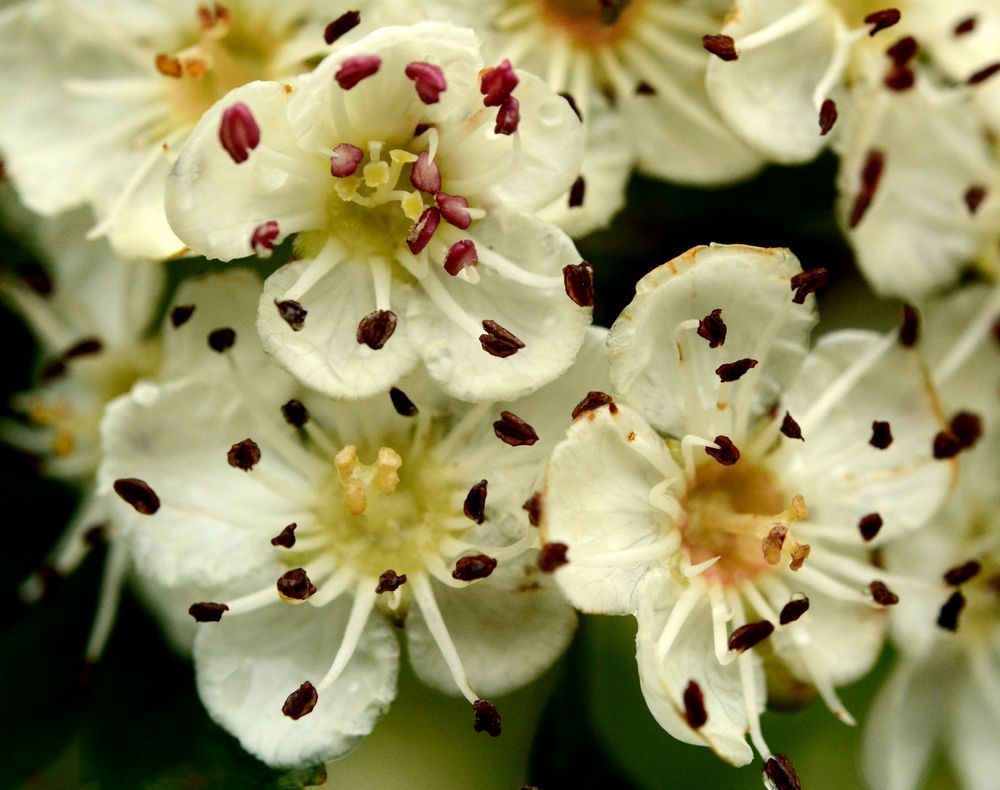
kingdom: Plantae
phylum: Tracheophyta
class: Magnoliopsida
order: Rosales
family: Rosaceae
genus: Crataegus
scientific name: Crataegus pentagyna
